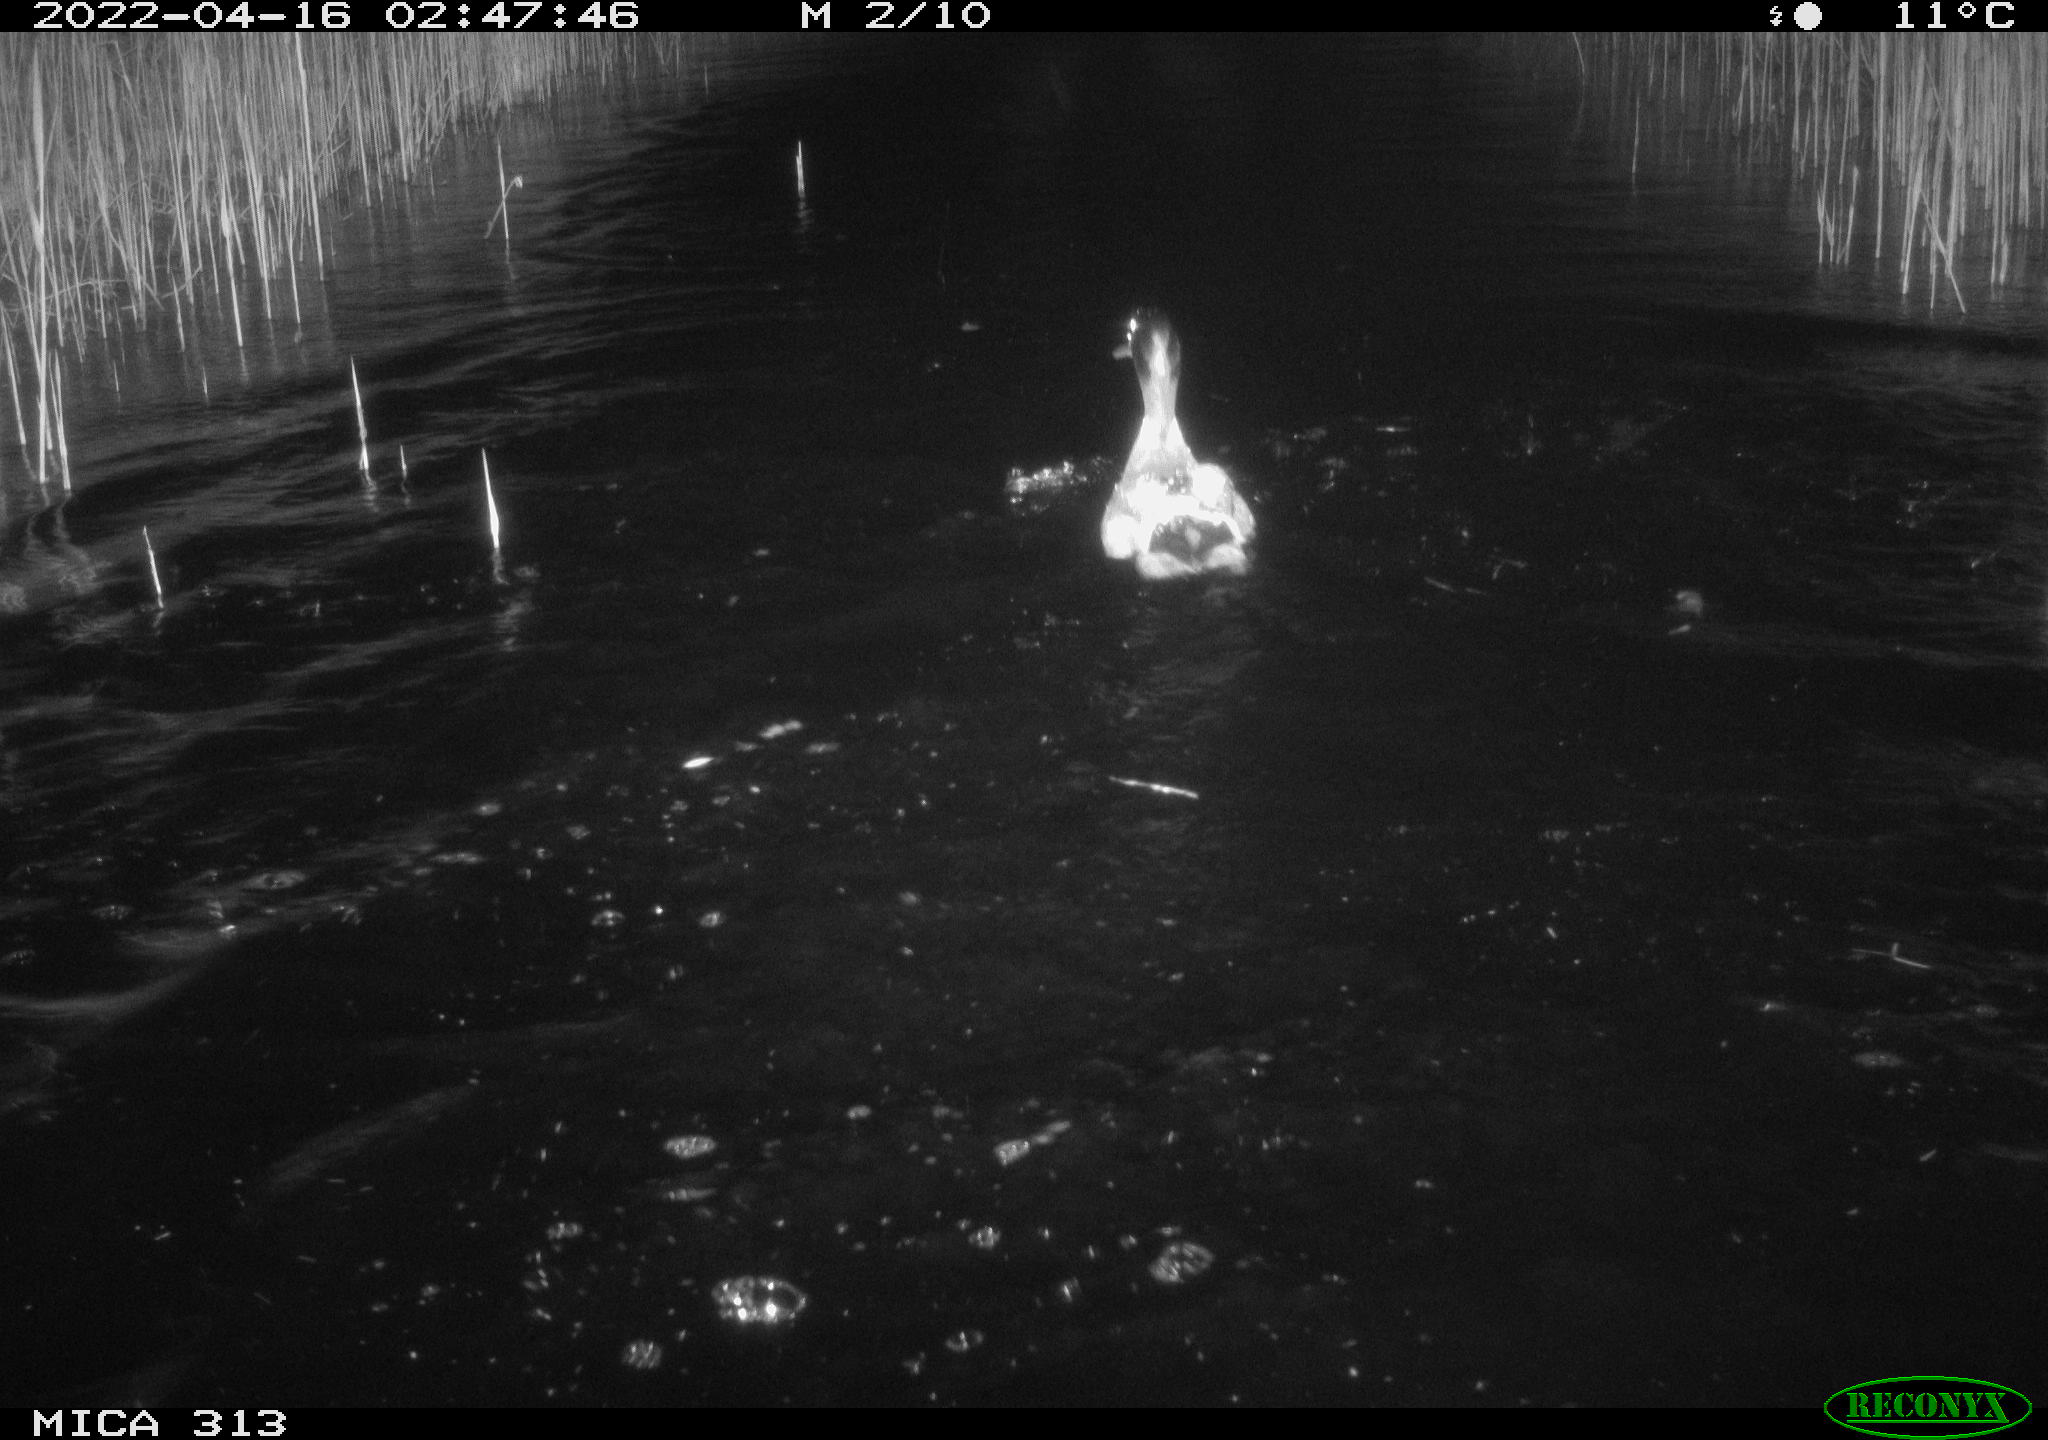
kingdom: Animalia
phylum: Chordata
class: Aves
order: Anseriformes
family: Anatidae
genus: Mareca
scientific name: Mareca strepera
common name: Gadwall
